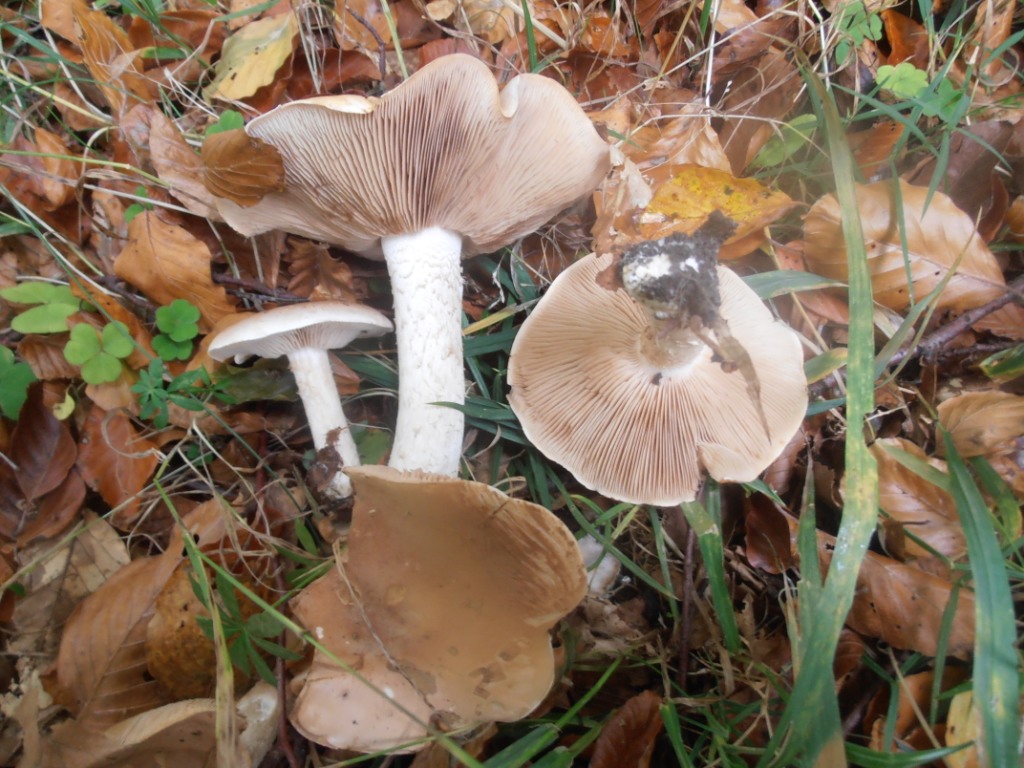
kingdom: Fungi
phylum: Basidiomycota
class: Agaricomycetes
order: Agaricales
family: Hymenogastraceae
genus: Hebeloma
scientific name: Hebeloma sinapizans
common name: ræddike-tåreblad
